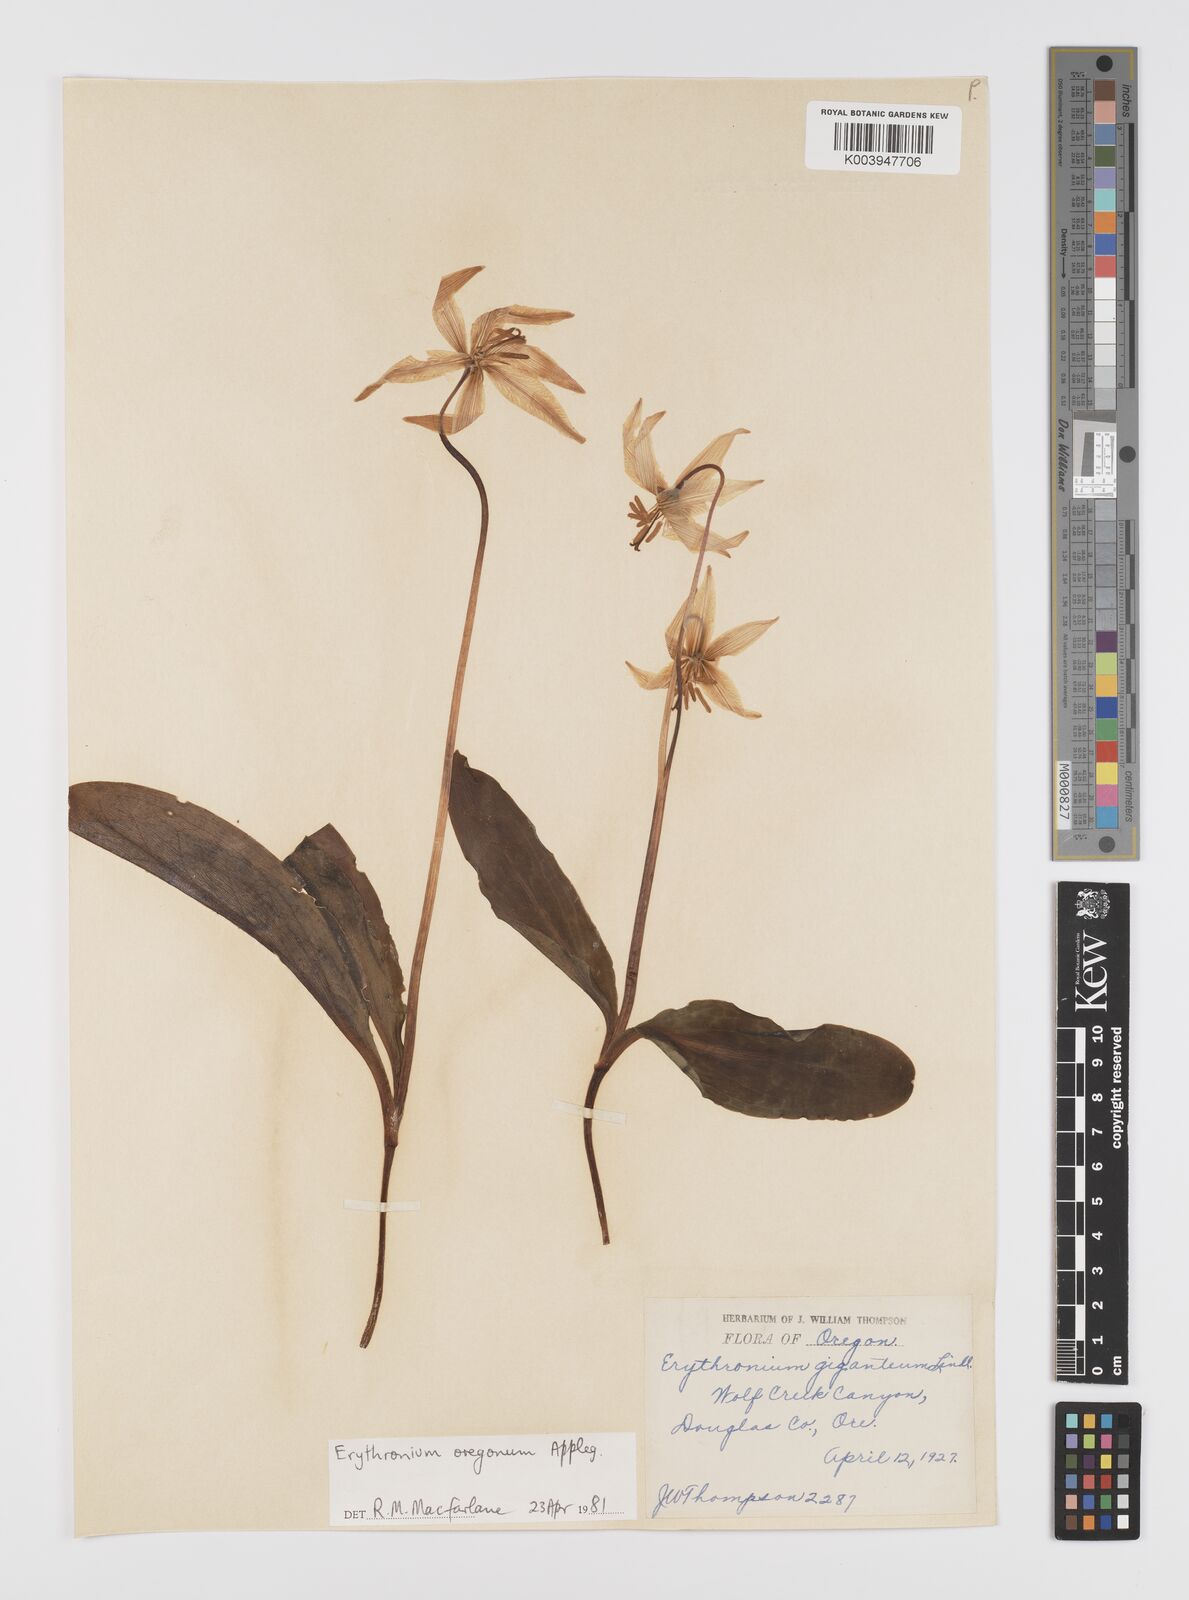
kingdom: Plantae
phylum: Tracheophyta
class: Liliopsida
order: Liliales
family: Liliaceae
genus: Erythronium
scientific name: Erythronium oregonum
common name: Giant adder's-tongue
